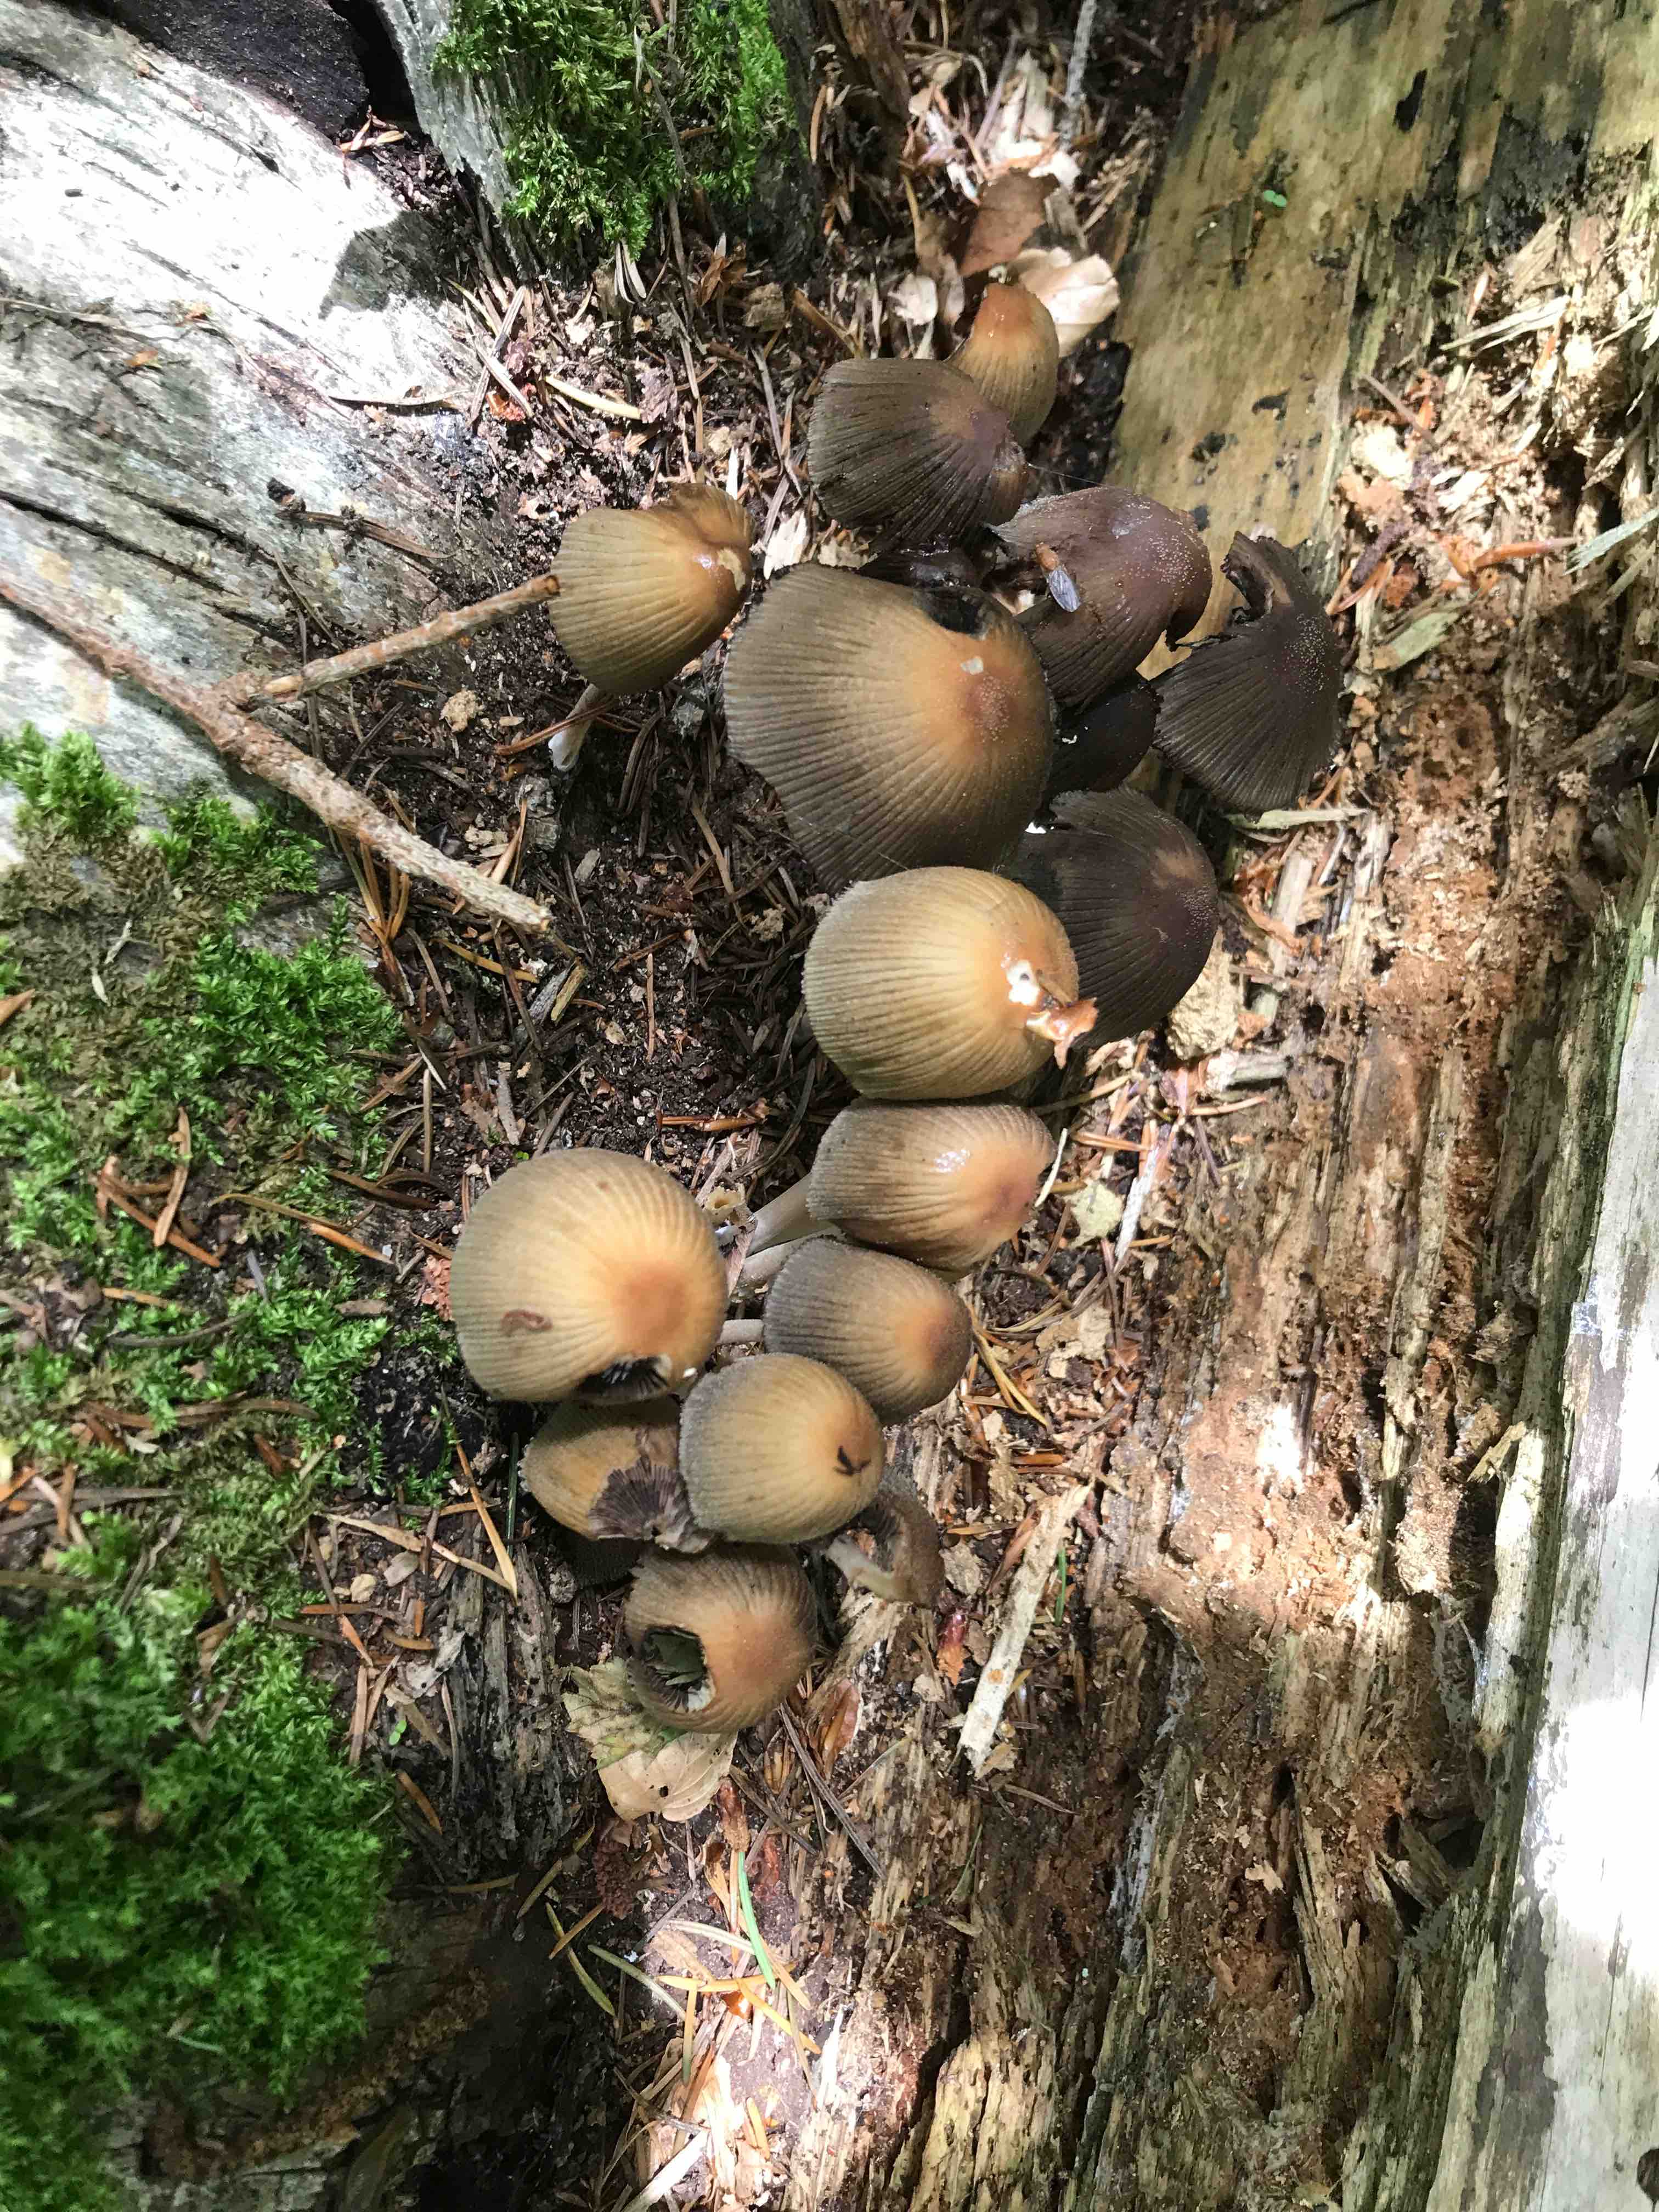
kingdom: Fungi
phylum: Basidiomycota
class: Agaricomycetes
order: Agaricales
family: Psathyrellaceae
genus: Coprinellus
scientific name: Coprinellus micaceus
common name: glimmer-blækhat
